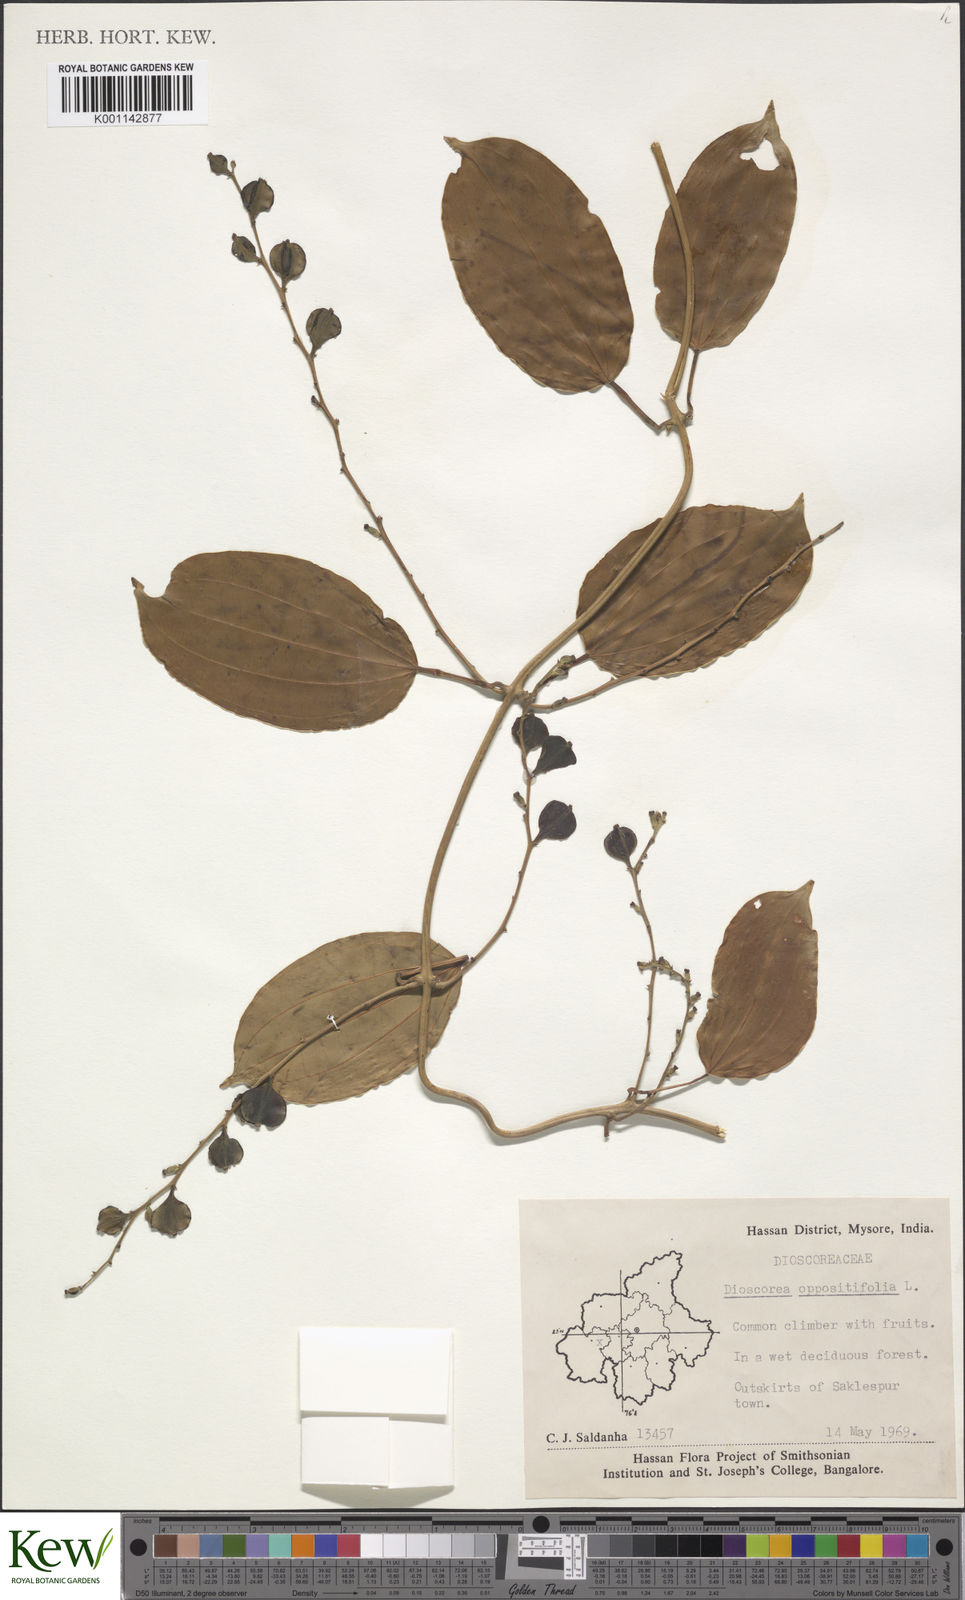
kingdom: Plantae
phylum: Tracheophyta
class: Liliopsida
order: Dioscoreales
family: Dioscoreaceae
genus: Dioscorea
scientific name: Dioscorea oppositifolia
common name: Chinese yam
